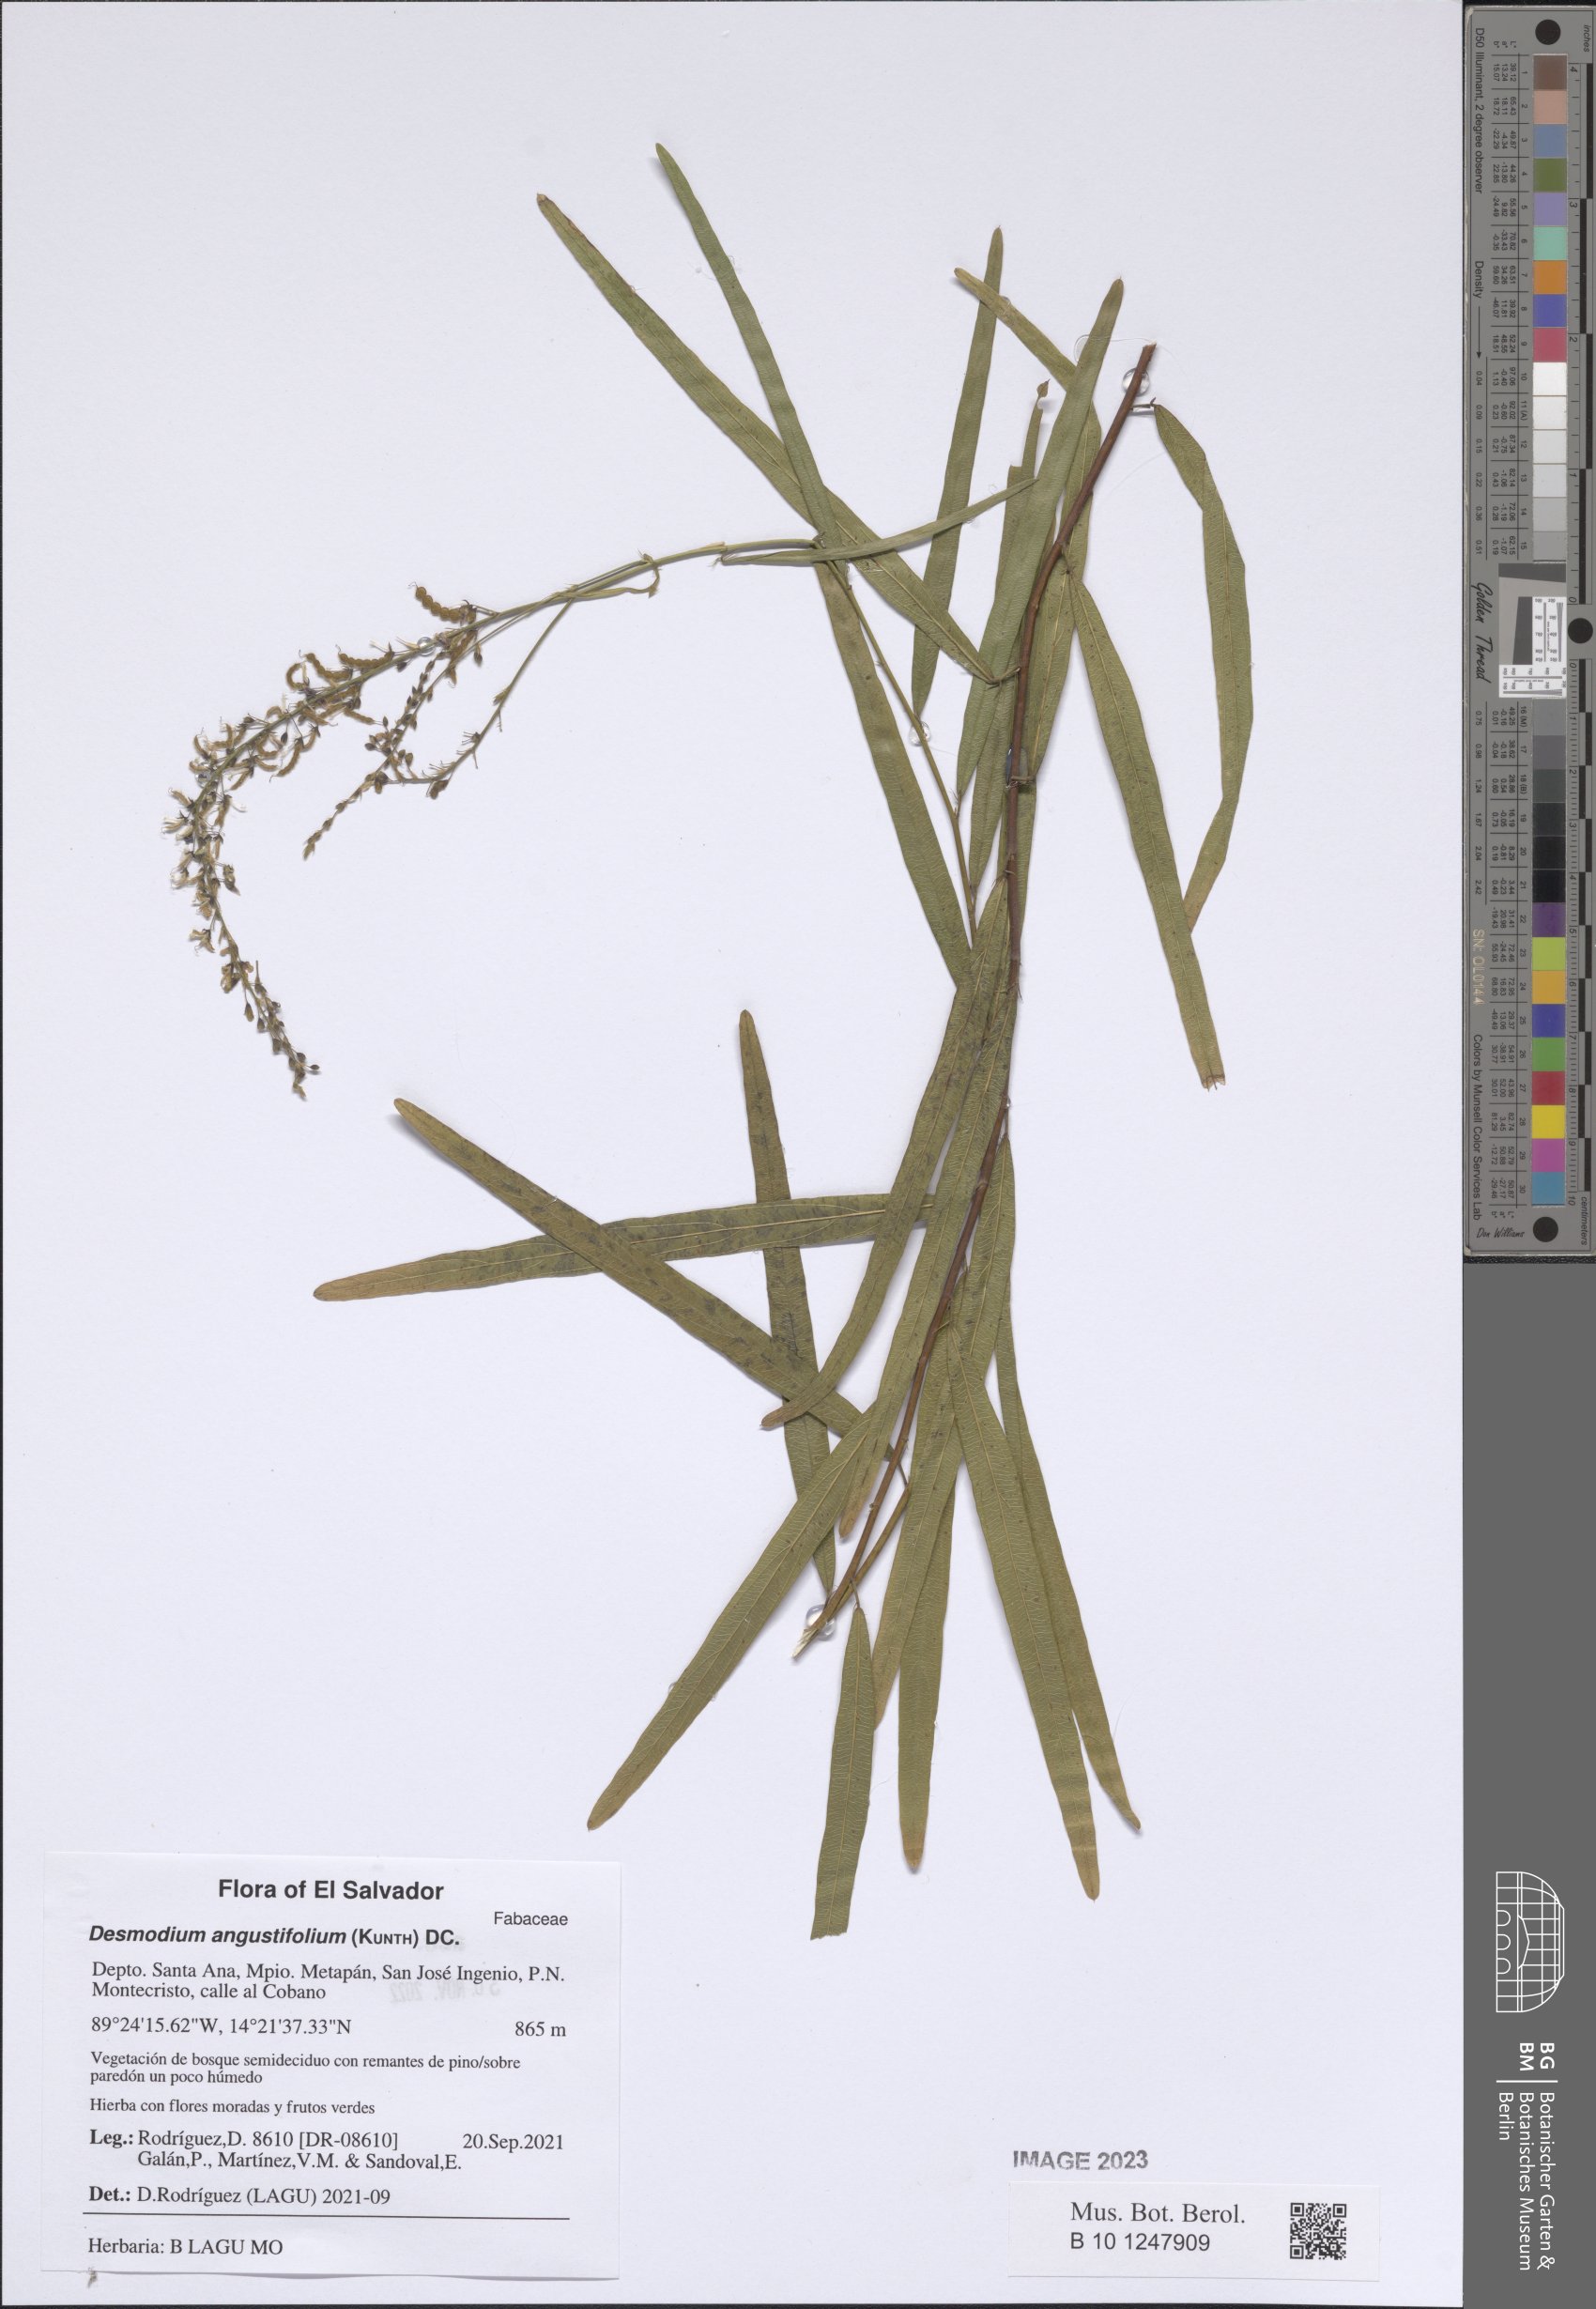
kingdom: Plantae
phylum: Tracheophyta
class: Magnoliopsida
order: Fabales
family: Fabaceae
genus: Desmodium
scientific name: Desmodium angustifolium
